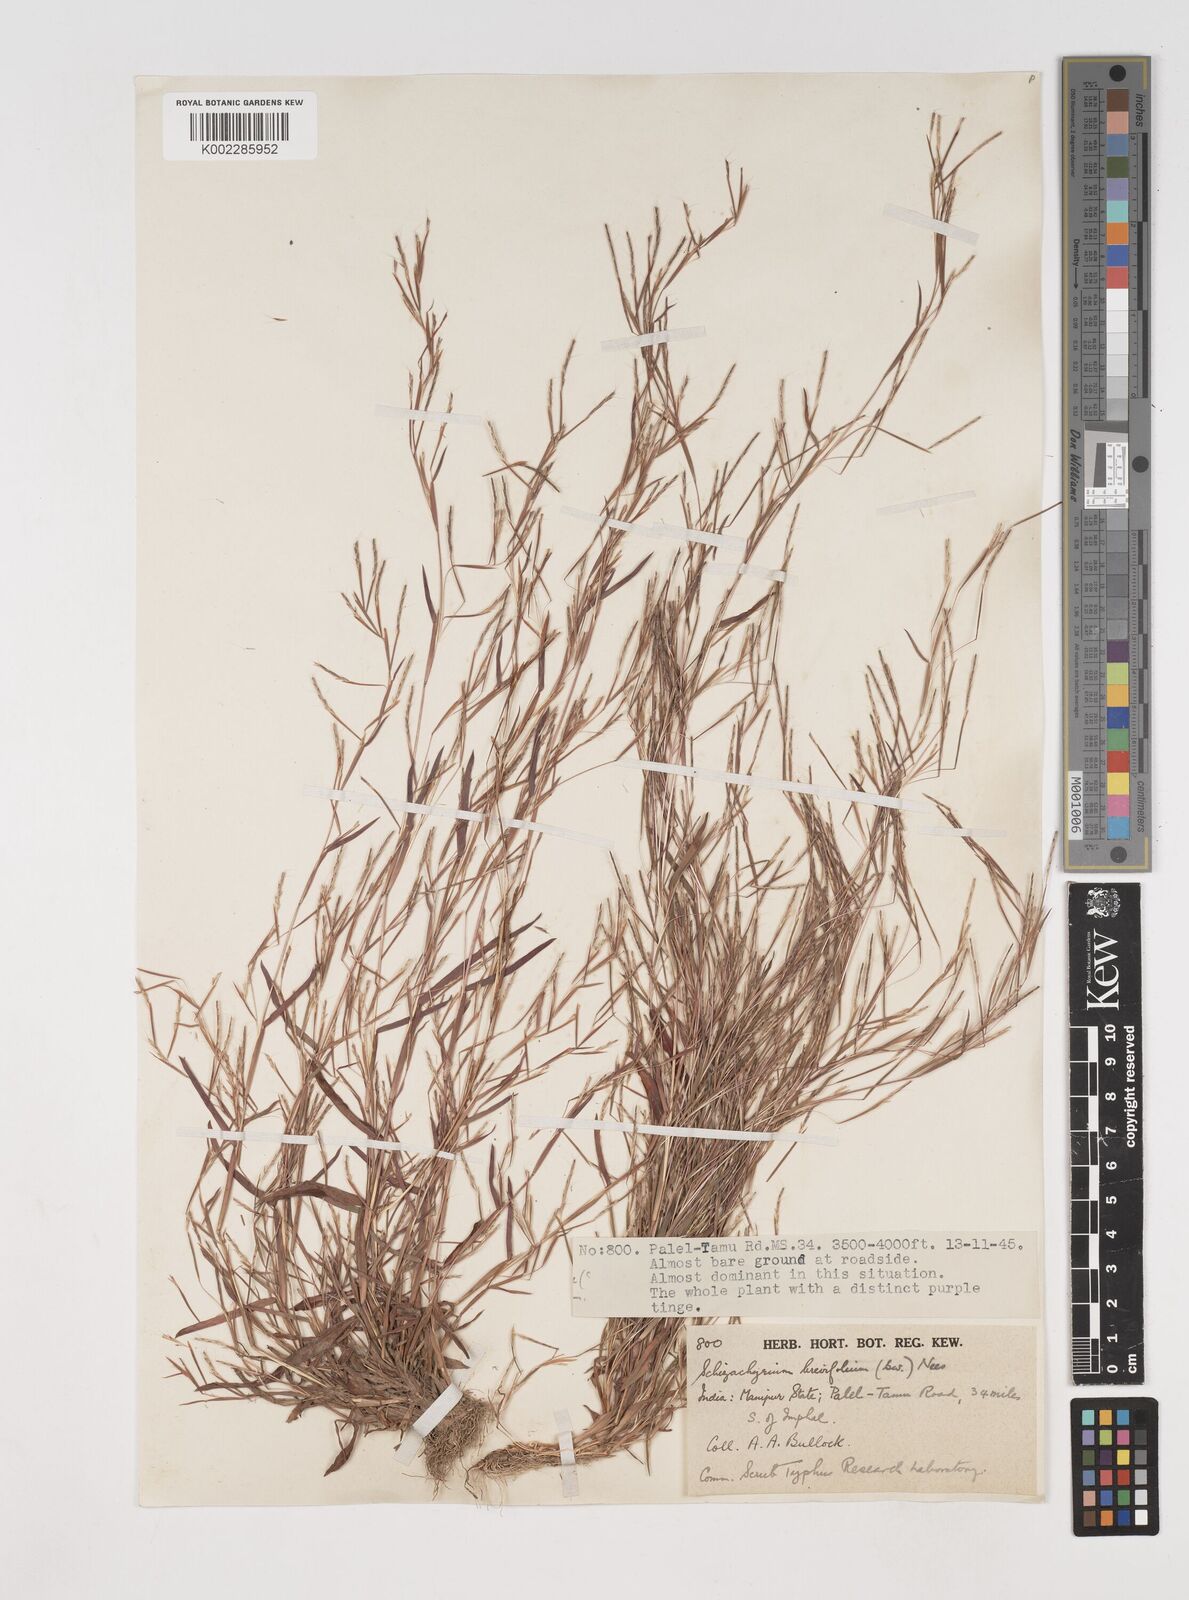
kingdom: Plantae
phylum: Tracheophyta
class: Liliopsida
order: Poales
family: Poaceae
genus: Schizachyrium
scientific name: Schizachyrium brevifolium
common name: Serillo dulce
